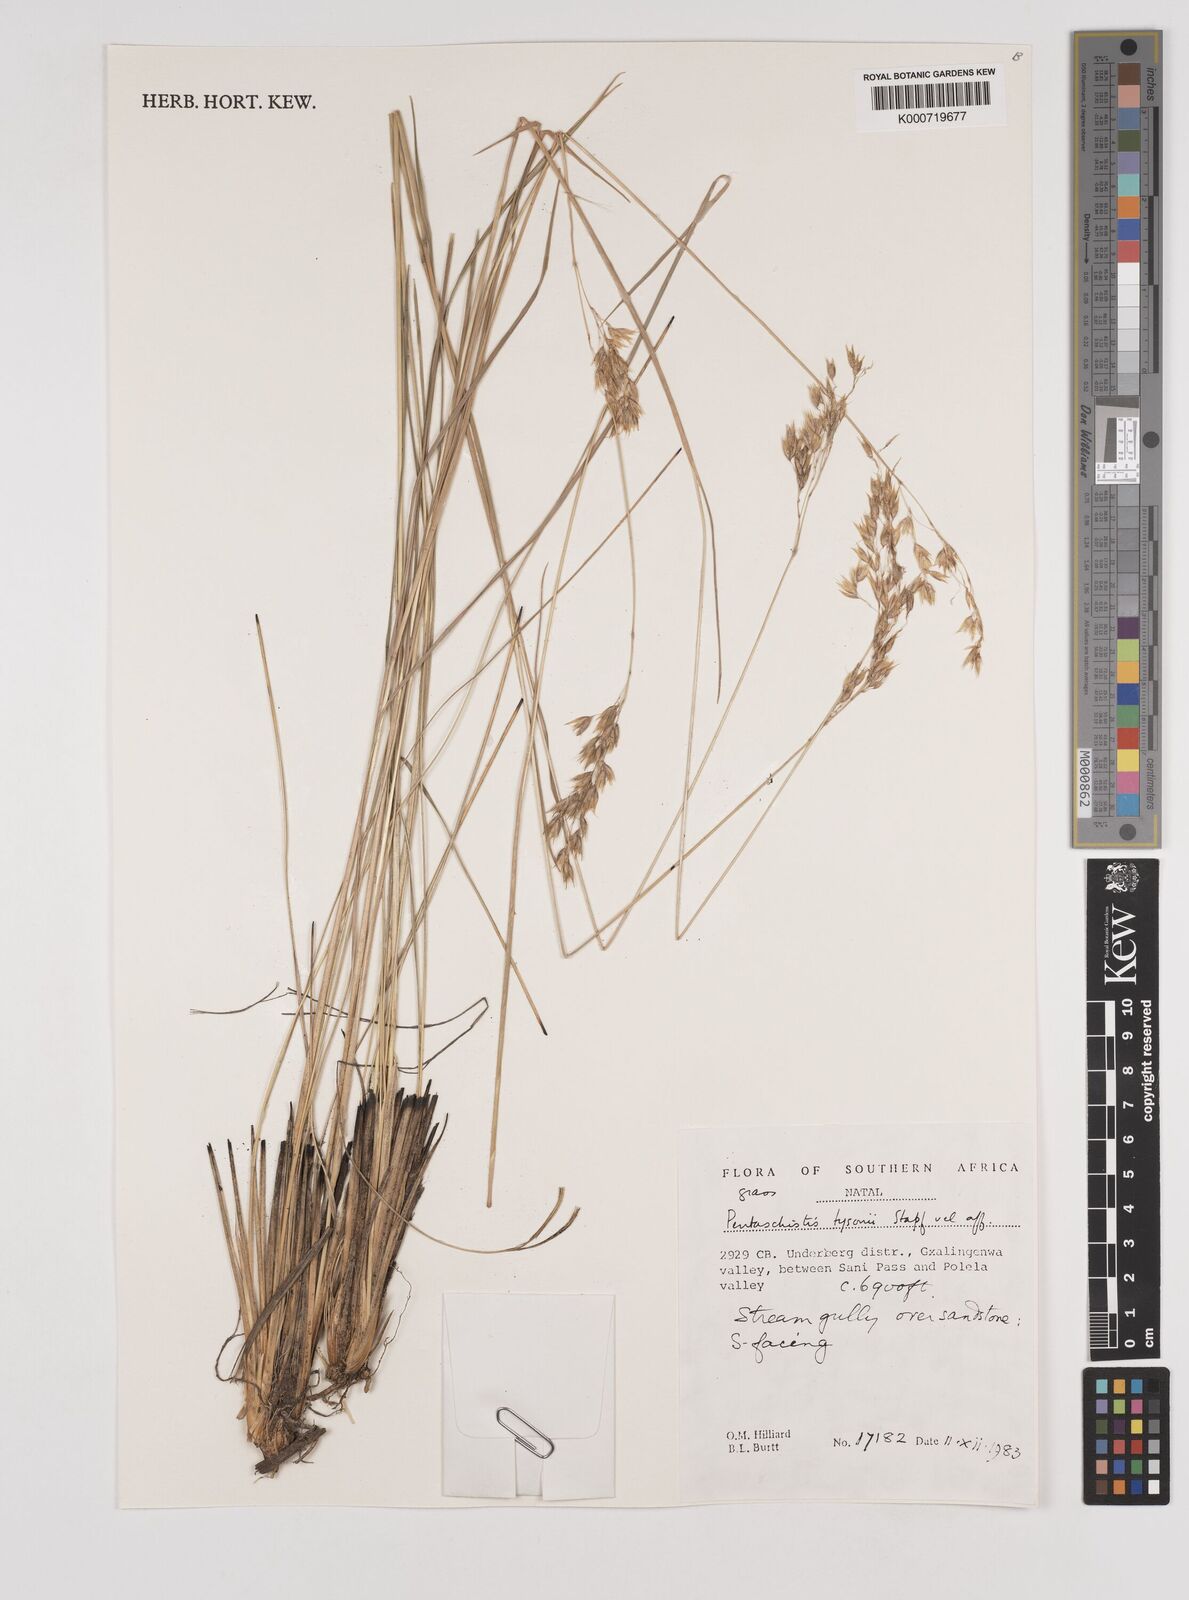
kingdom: Plantae
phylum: Tracheophyta
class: Liliopsida
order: Poales
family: Poaceae
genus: Pentameris
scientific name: Pentameris tysonii
